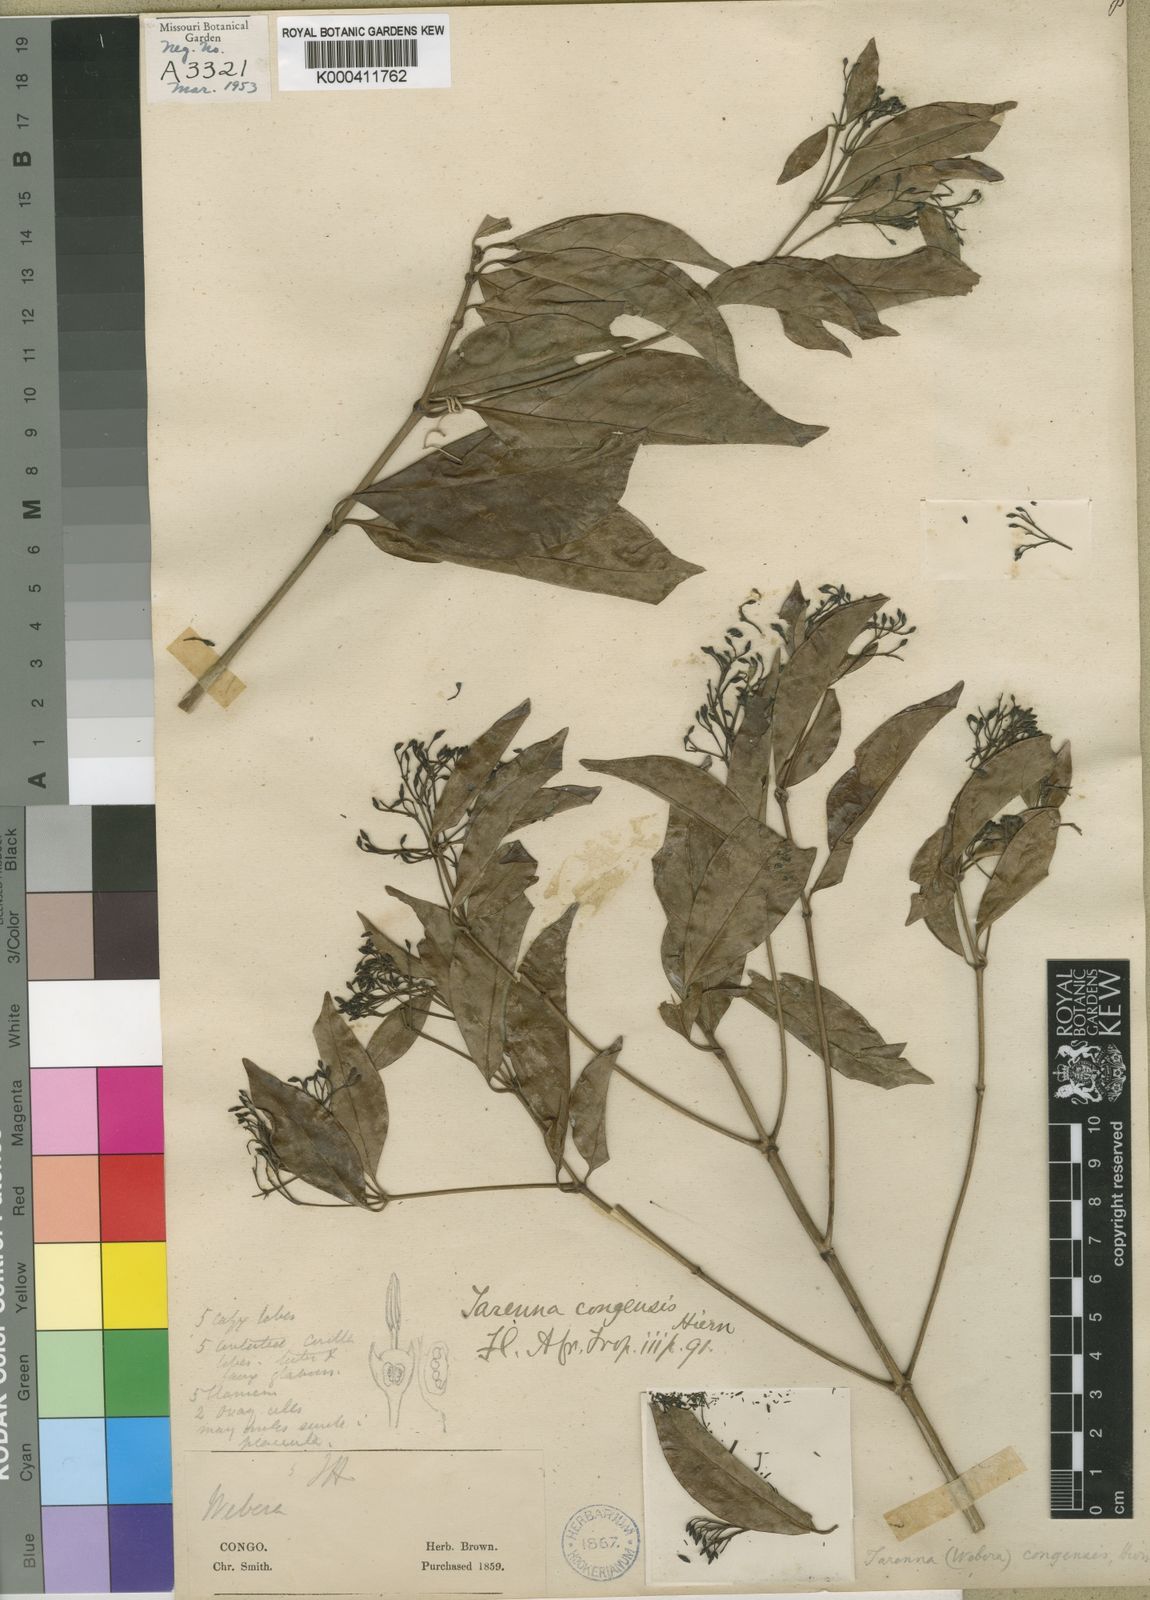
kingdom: Plantae
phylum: Tracheophyta
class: Magnoliopsida
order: Gentianales
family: Rubiaceae
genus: Tarenna
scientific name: Tarenna congensis
